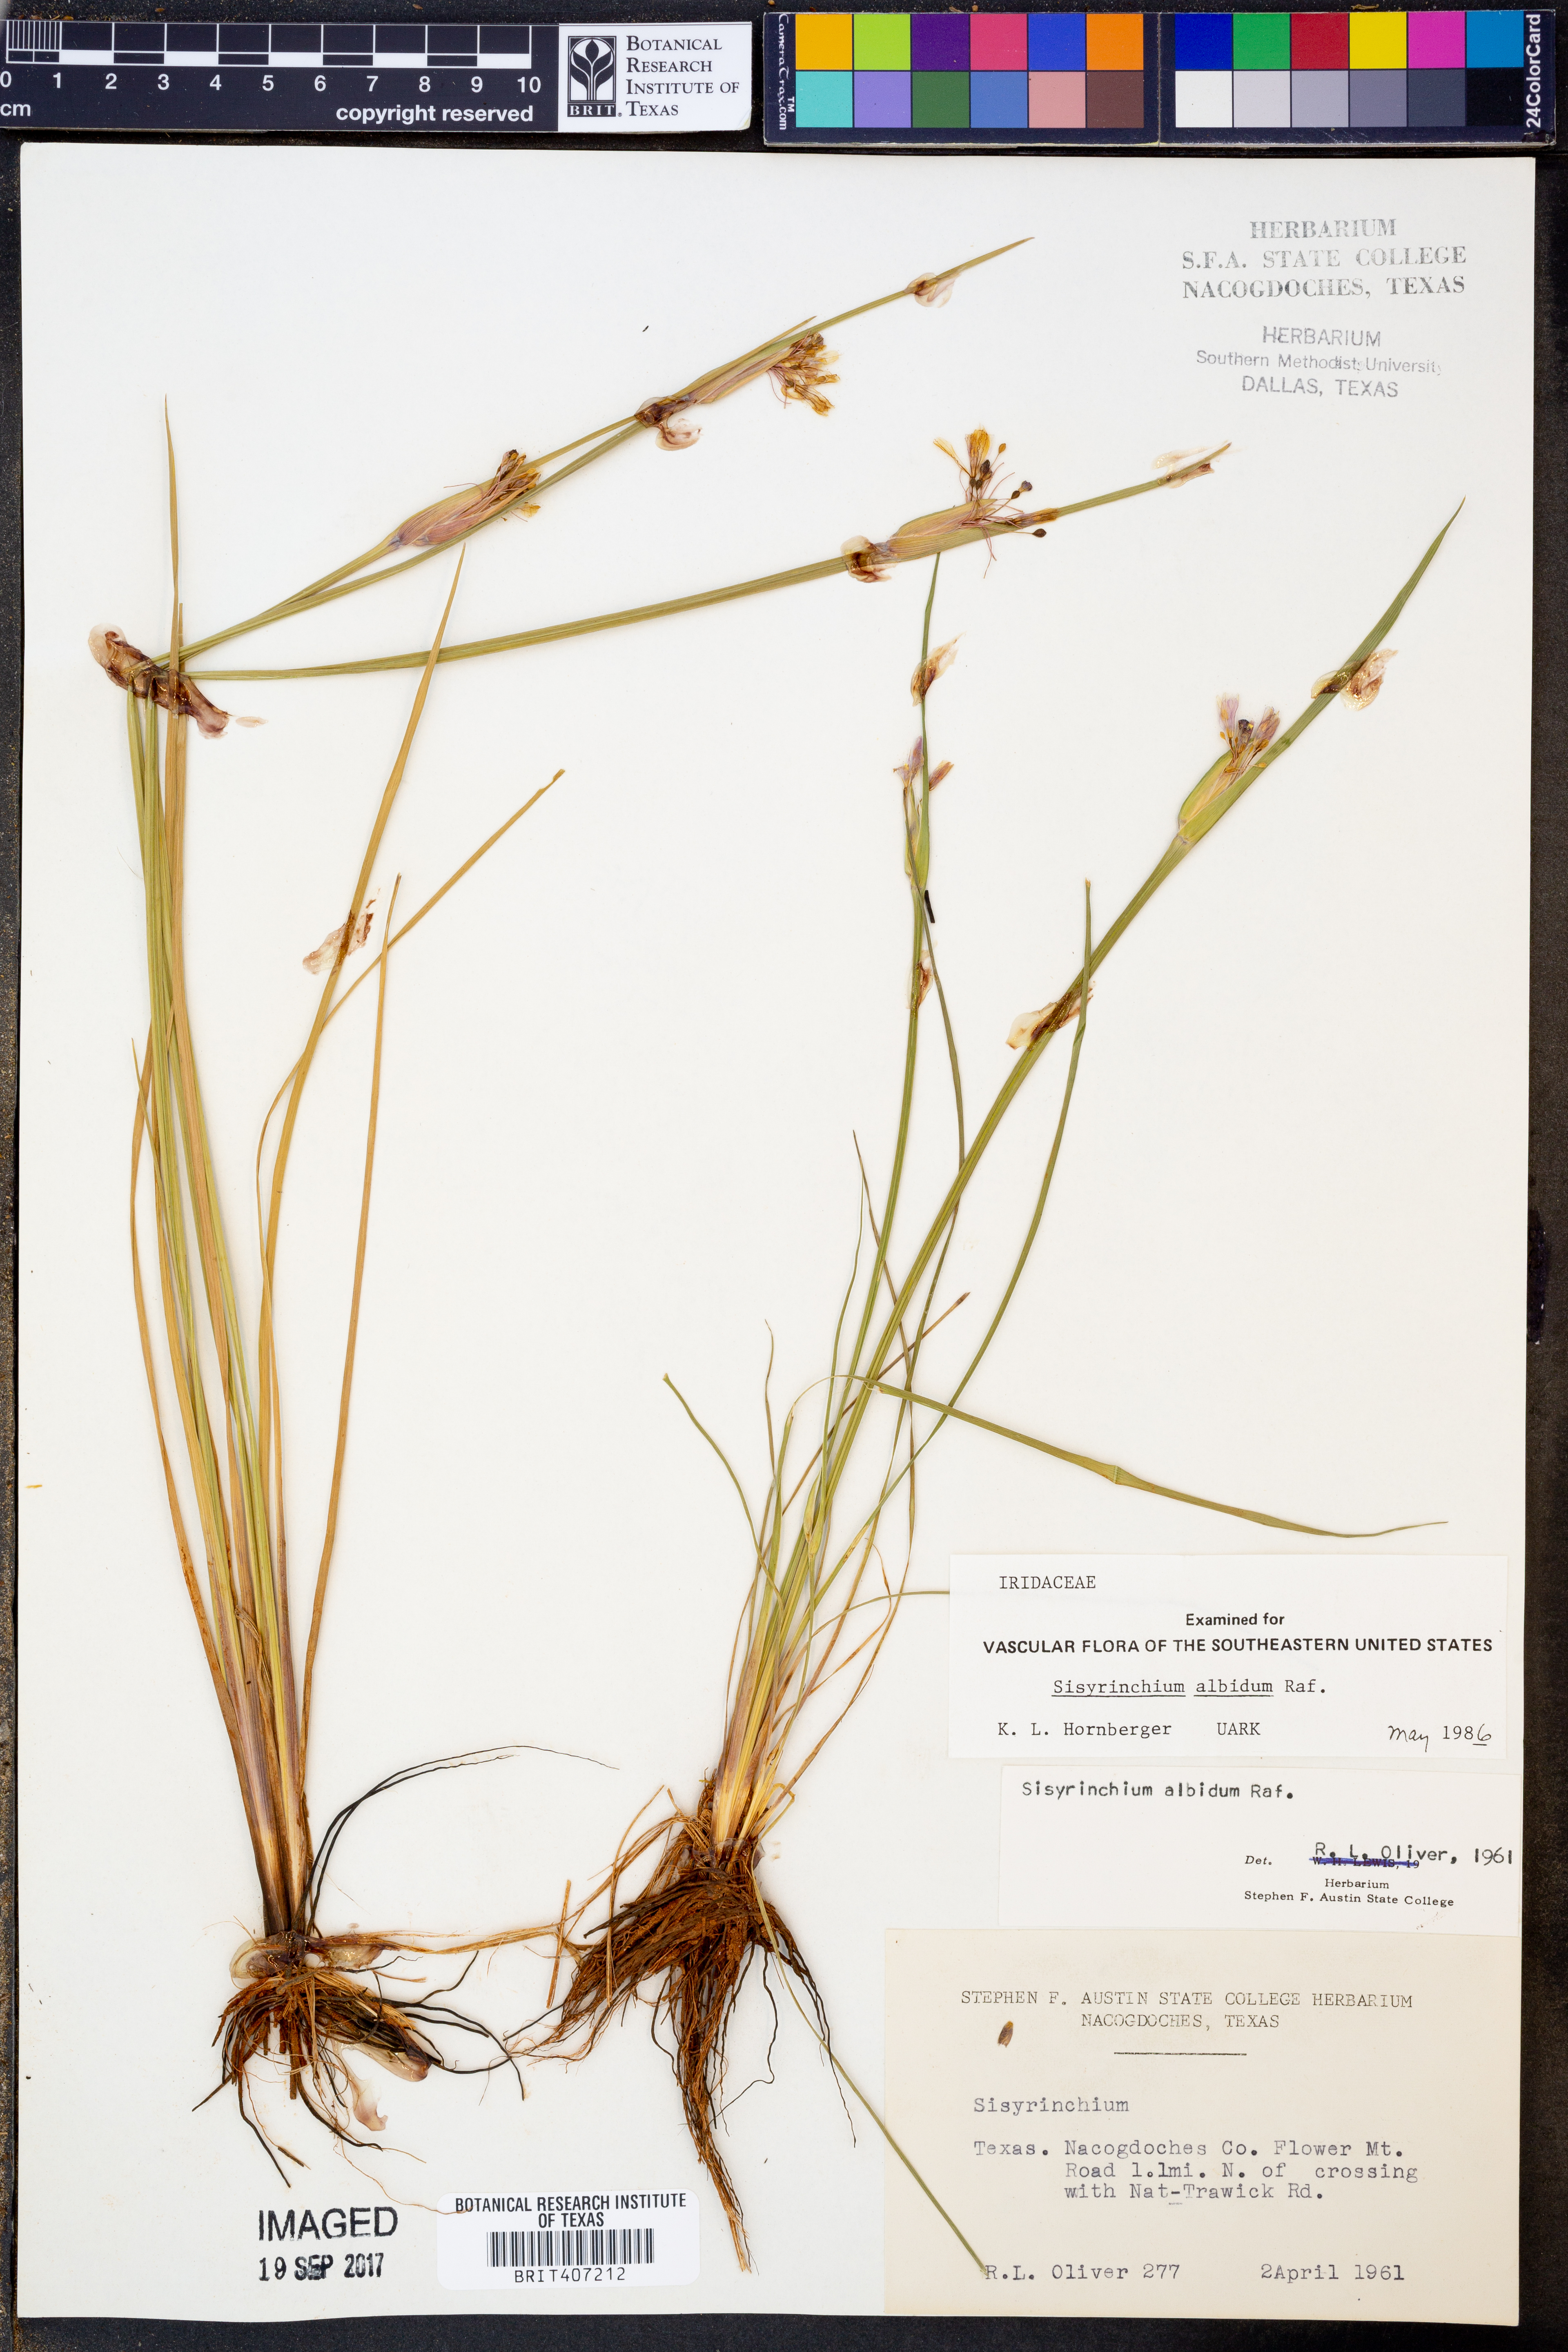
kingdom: Plantae
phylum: Tracheophyta
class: Liliopsida
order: Asparagales
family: Iridaceae
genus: Sisyrinchium
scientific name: Sisyrinchium albidum
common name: Pale blue-eyed-grass
